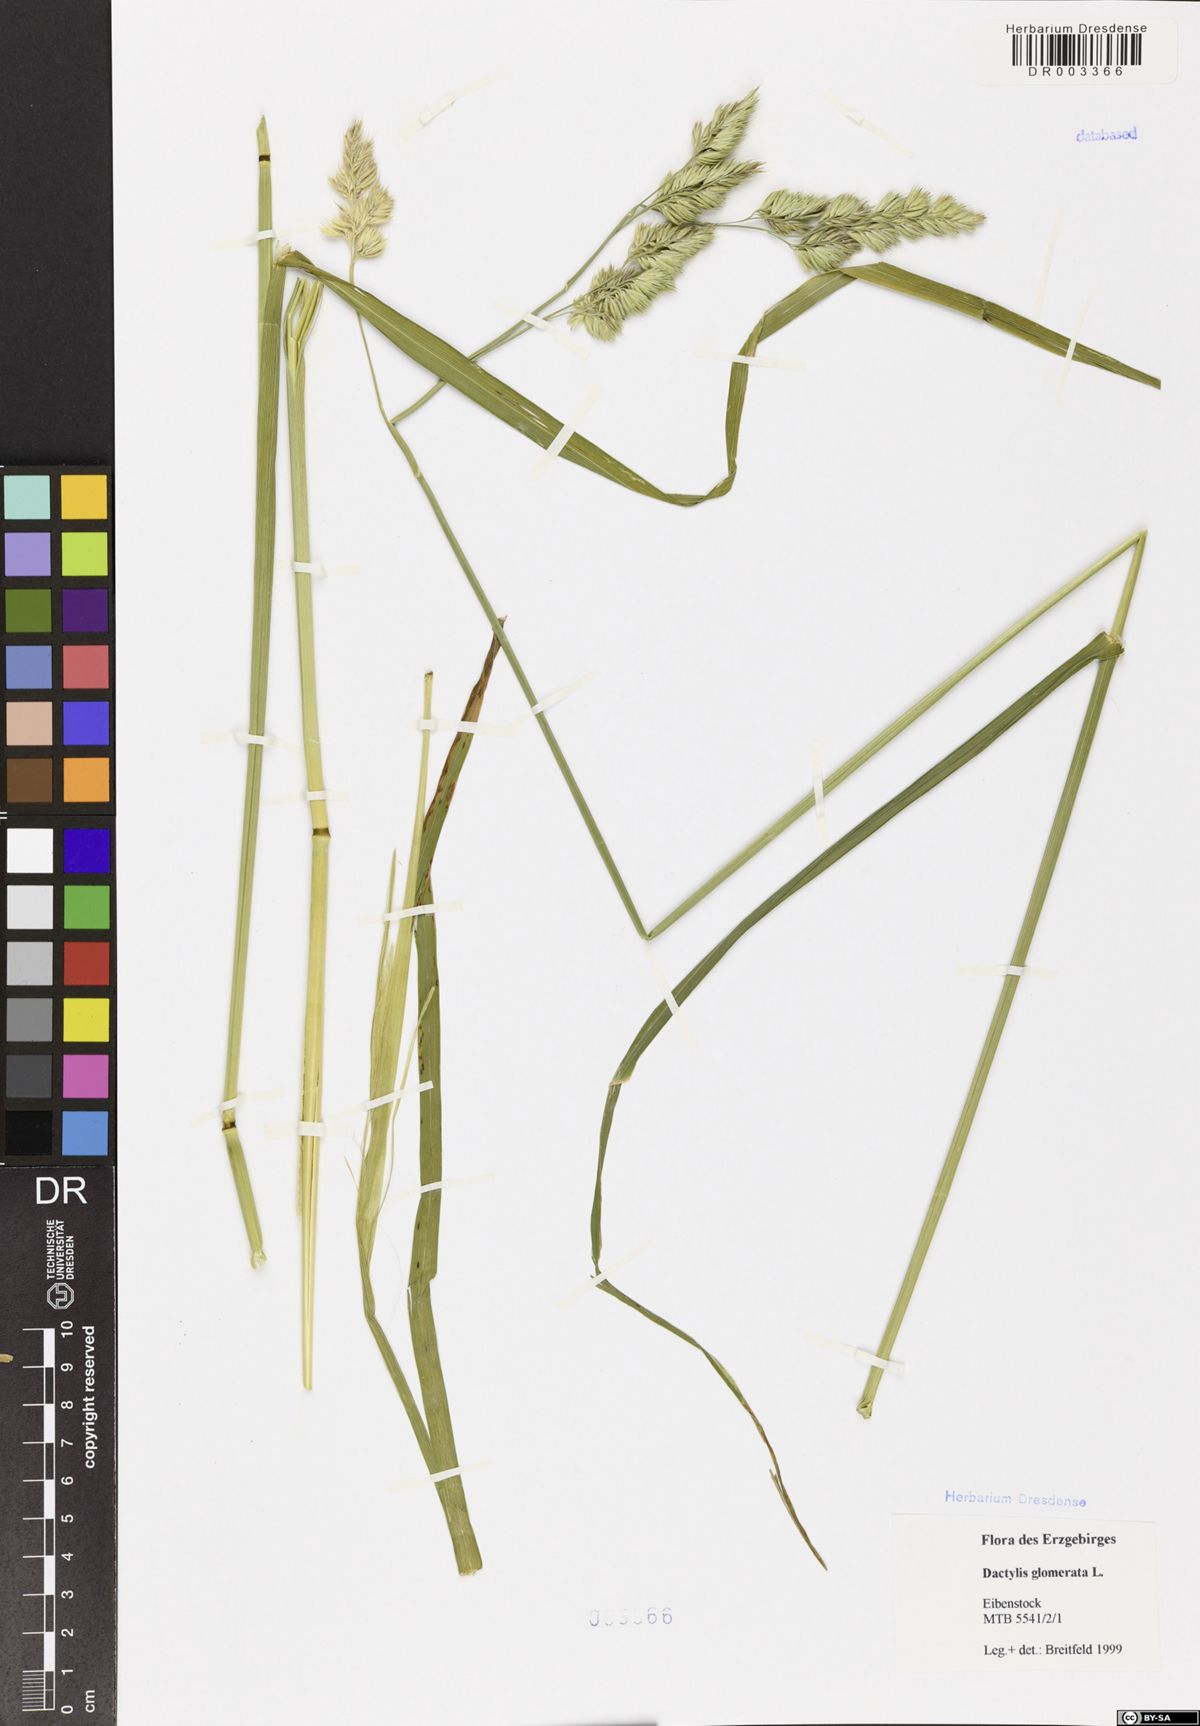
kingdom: Plantae
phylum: Tracheophyta
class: Liliopsida
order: Poales
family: Poaceae
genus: Dactylis
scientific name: Dactylis glomerata
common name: Orchardgrass
